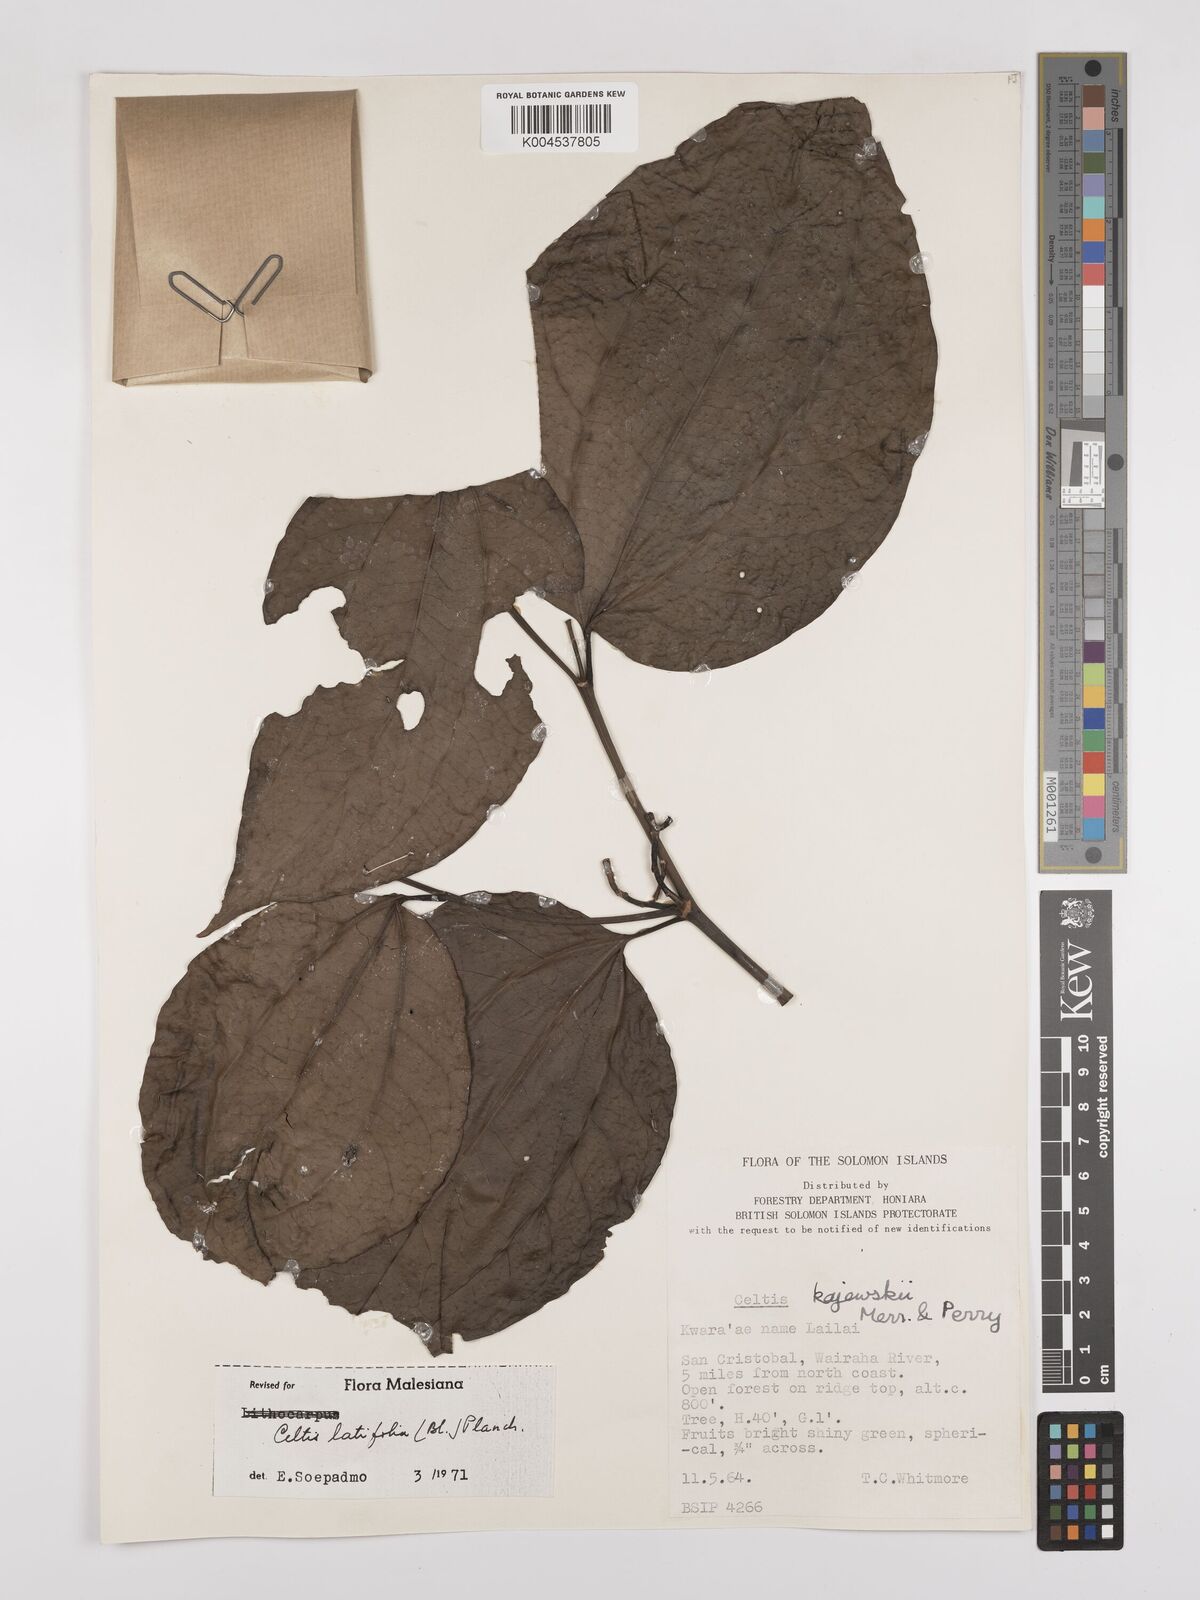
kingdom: Plantae
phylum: Tracheophyta
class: Magnoliopsida
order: Rosales
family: Cannabaceae
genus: Celtis
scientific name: Celtis latifolia
